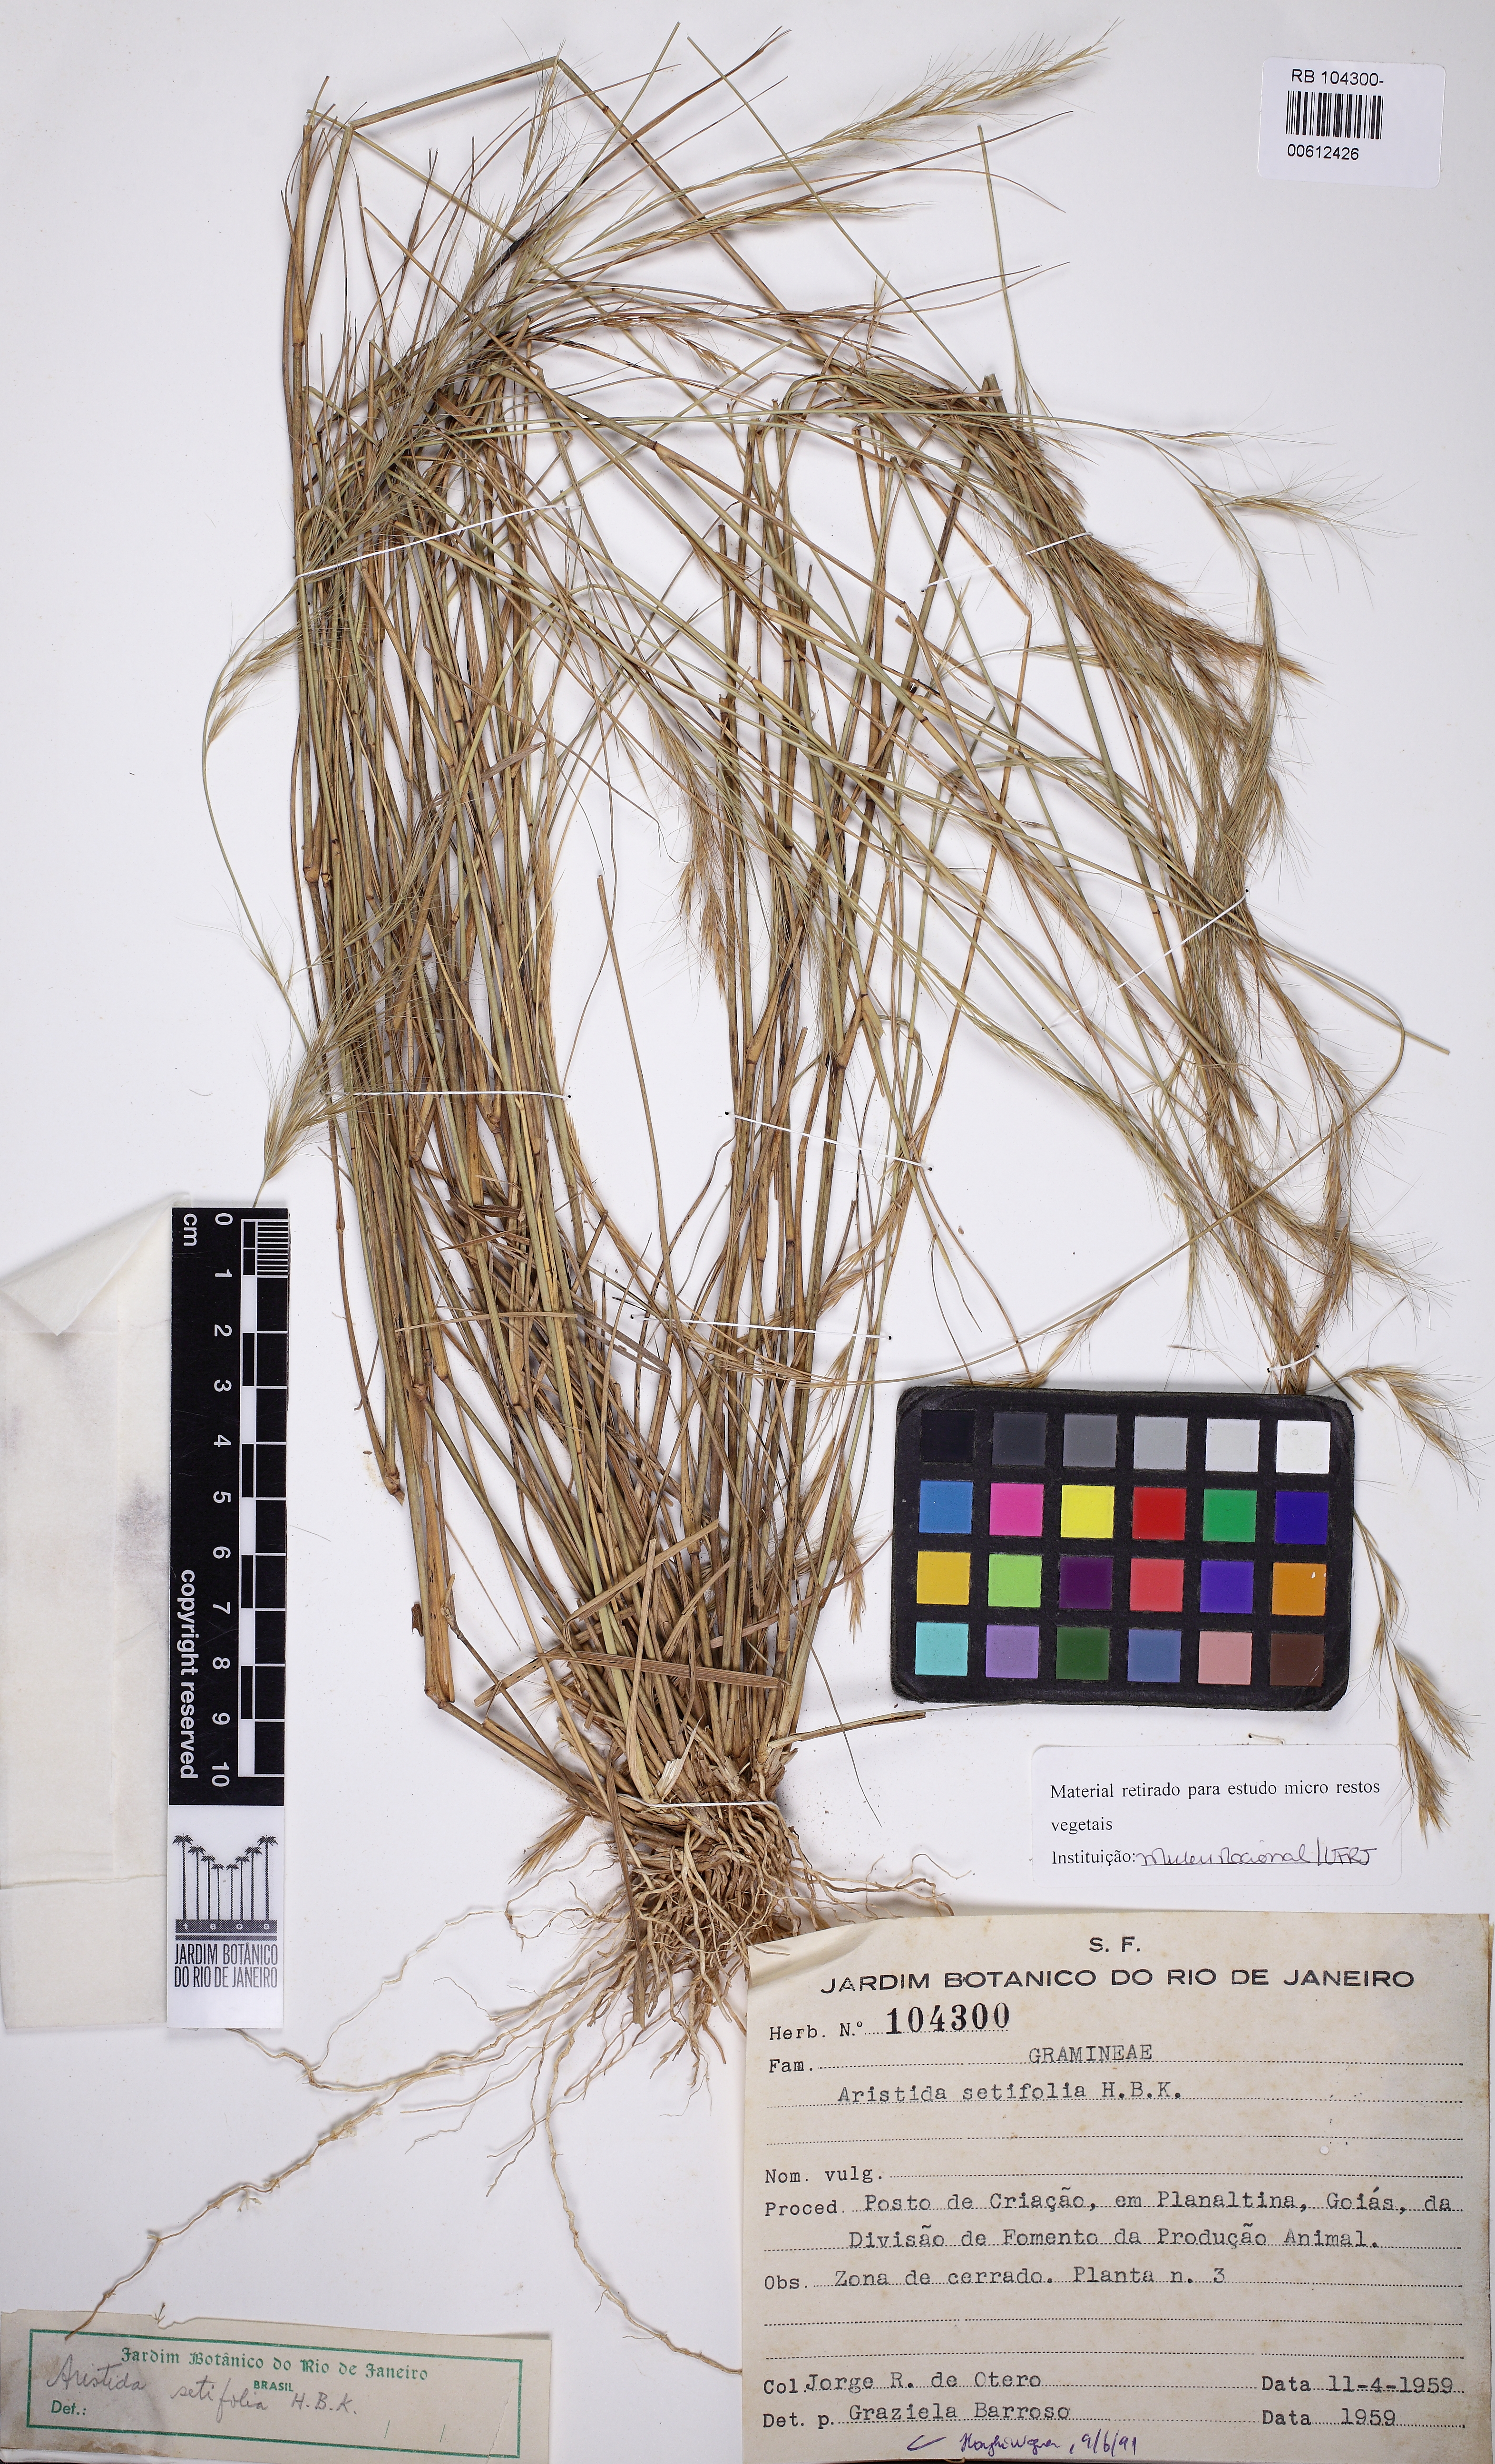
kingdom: Plantae
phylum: Tracheophyta
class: Liliopsida
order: Poales
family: Poaceae
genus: Aristida
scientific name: Aristida setifolia
